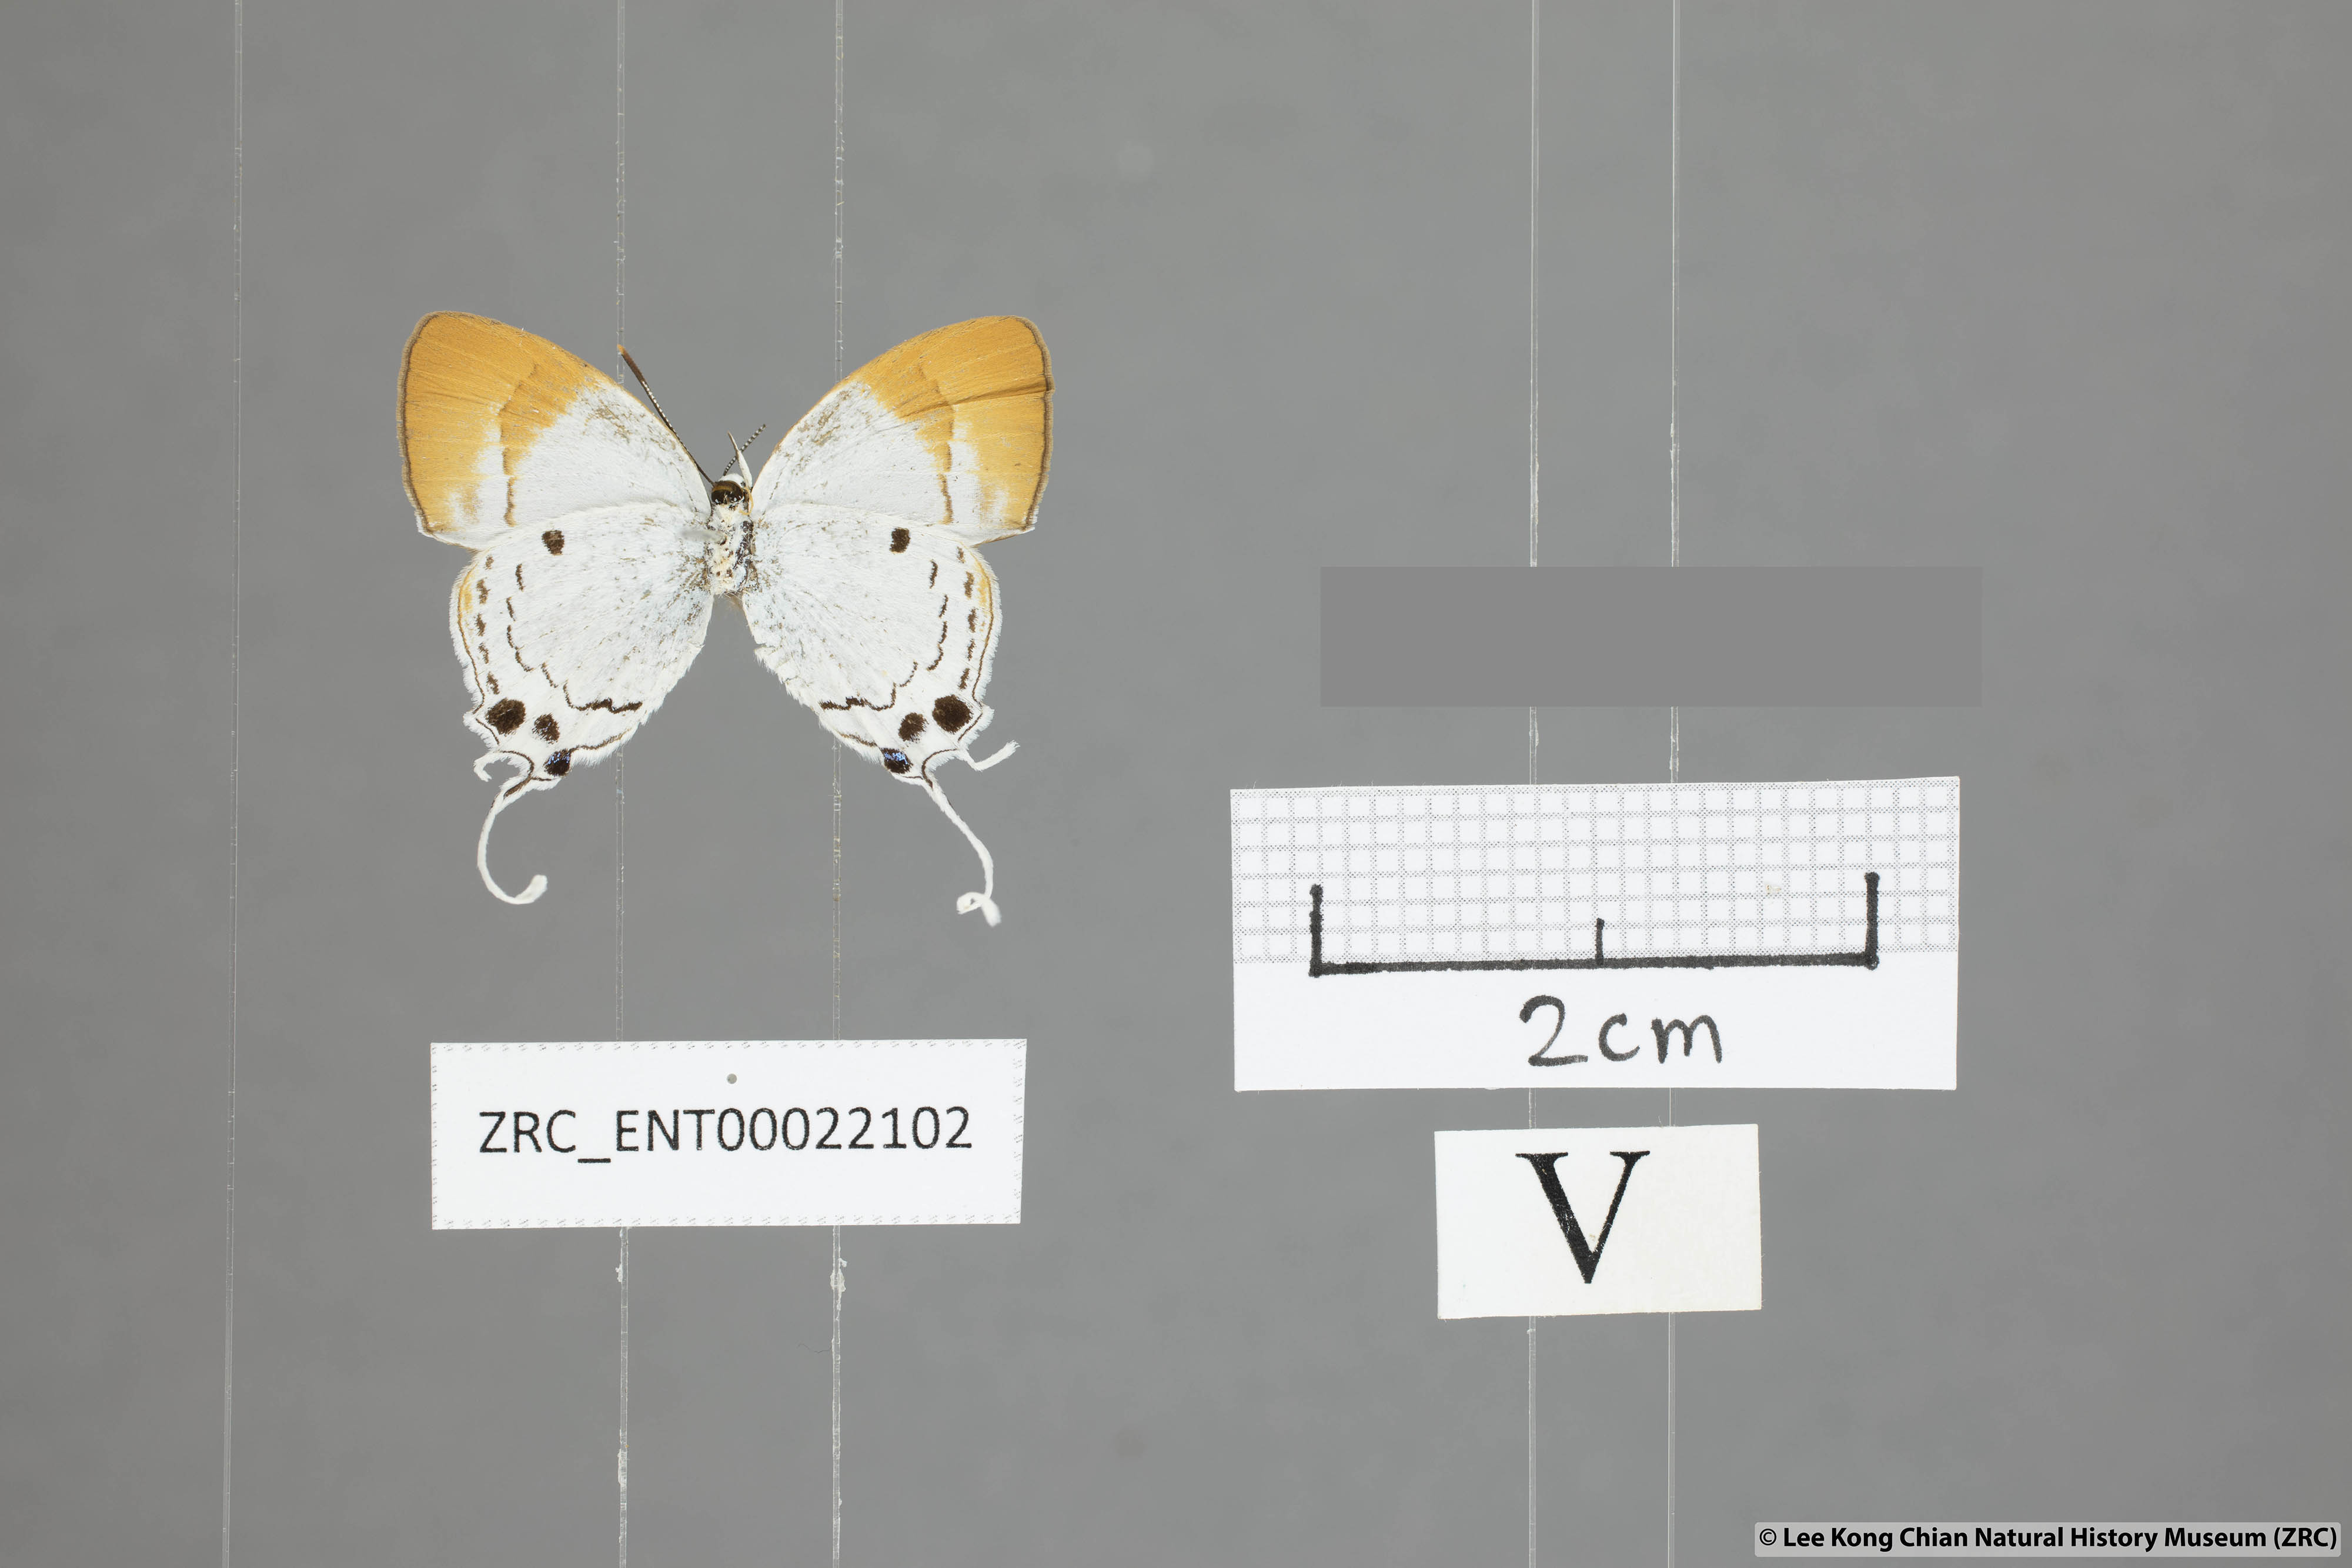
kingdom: Animalia
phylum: Arthropoda
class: Insecta
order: Lepidoptera
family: Lycaenidae
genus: Suasa
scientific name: Suasa lisides
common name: Red imperial
